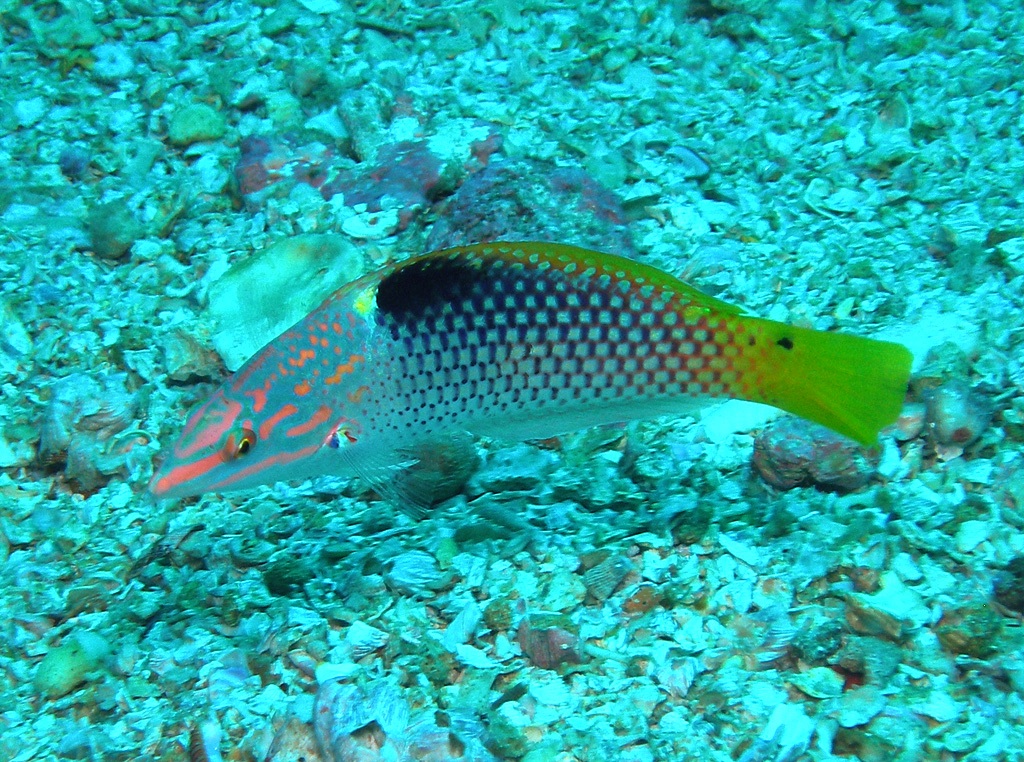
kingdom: Animalia
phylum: Chordata
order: Perciformes
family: Labridae
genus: Halichoeres
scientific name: Halichoeres hortulanus
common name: Checkerboard wrasse
